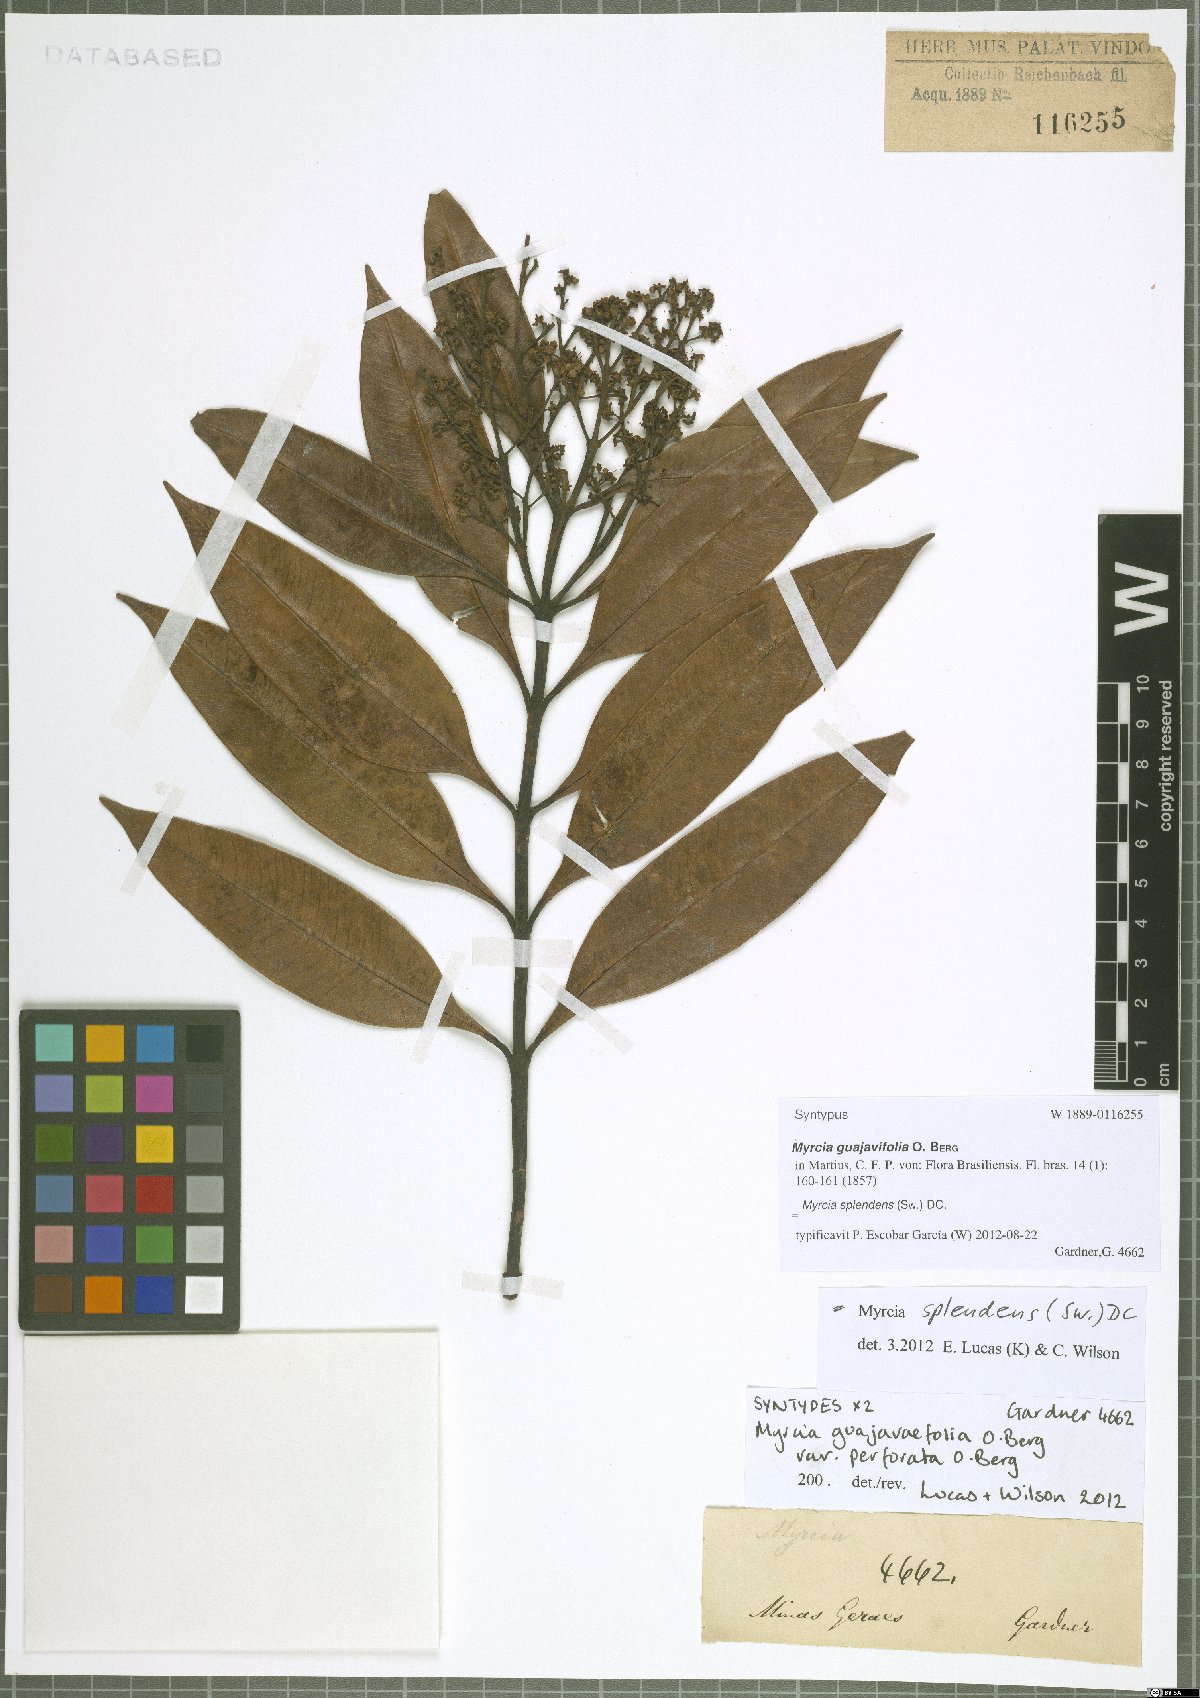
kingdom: Plantae
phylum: Tracheophyta
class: Magnoliopsida
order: Myrtales
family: Myrtaceae
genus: Myrcia
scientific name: Myrcia splendens
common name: Surinam cherry
